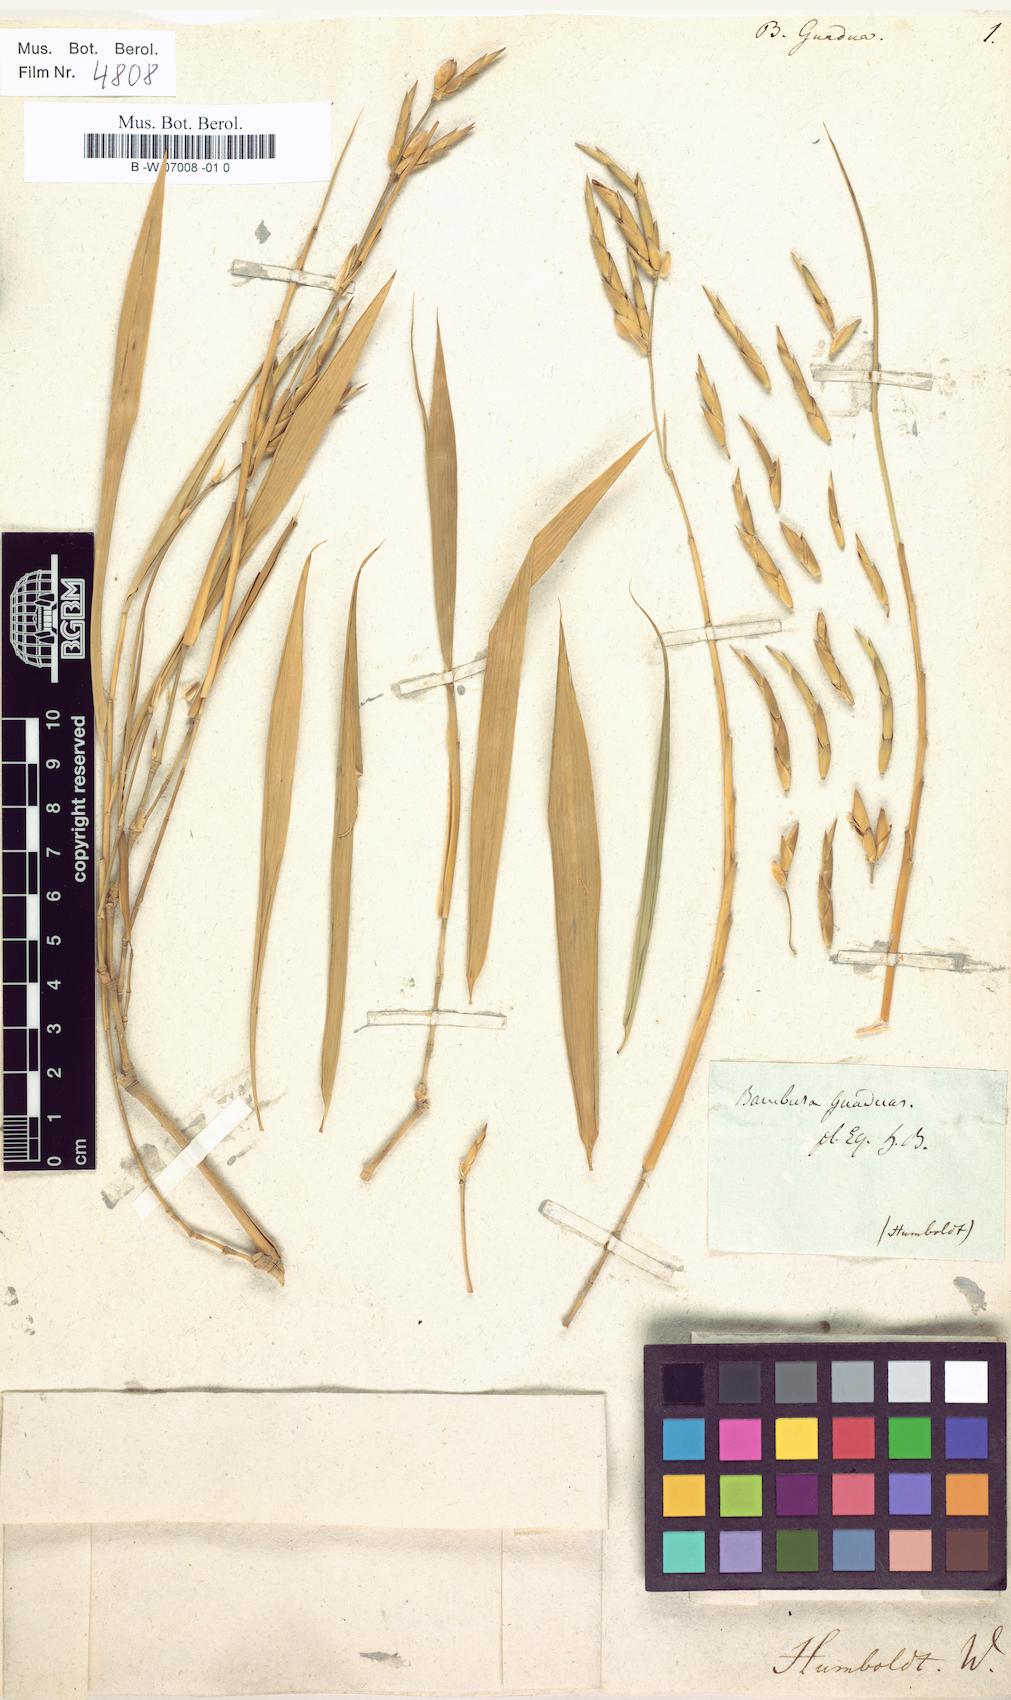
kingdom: Plantae
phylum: Tracheophyta
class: Liliopsida
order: Poales
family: Poaceae
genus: Guadua
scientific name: Guadua angustifolia
